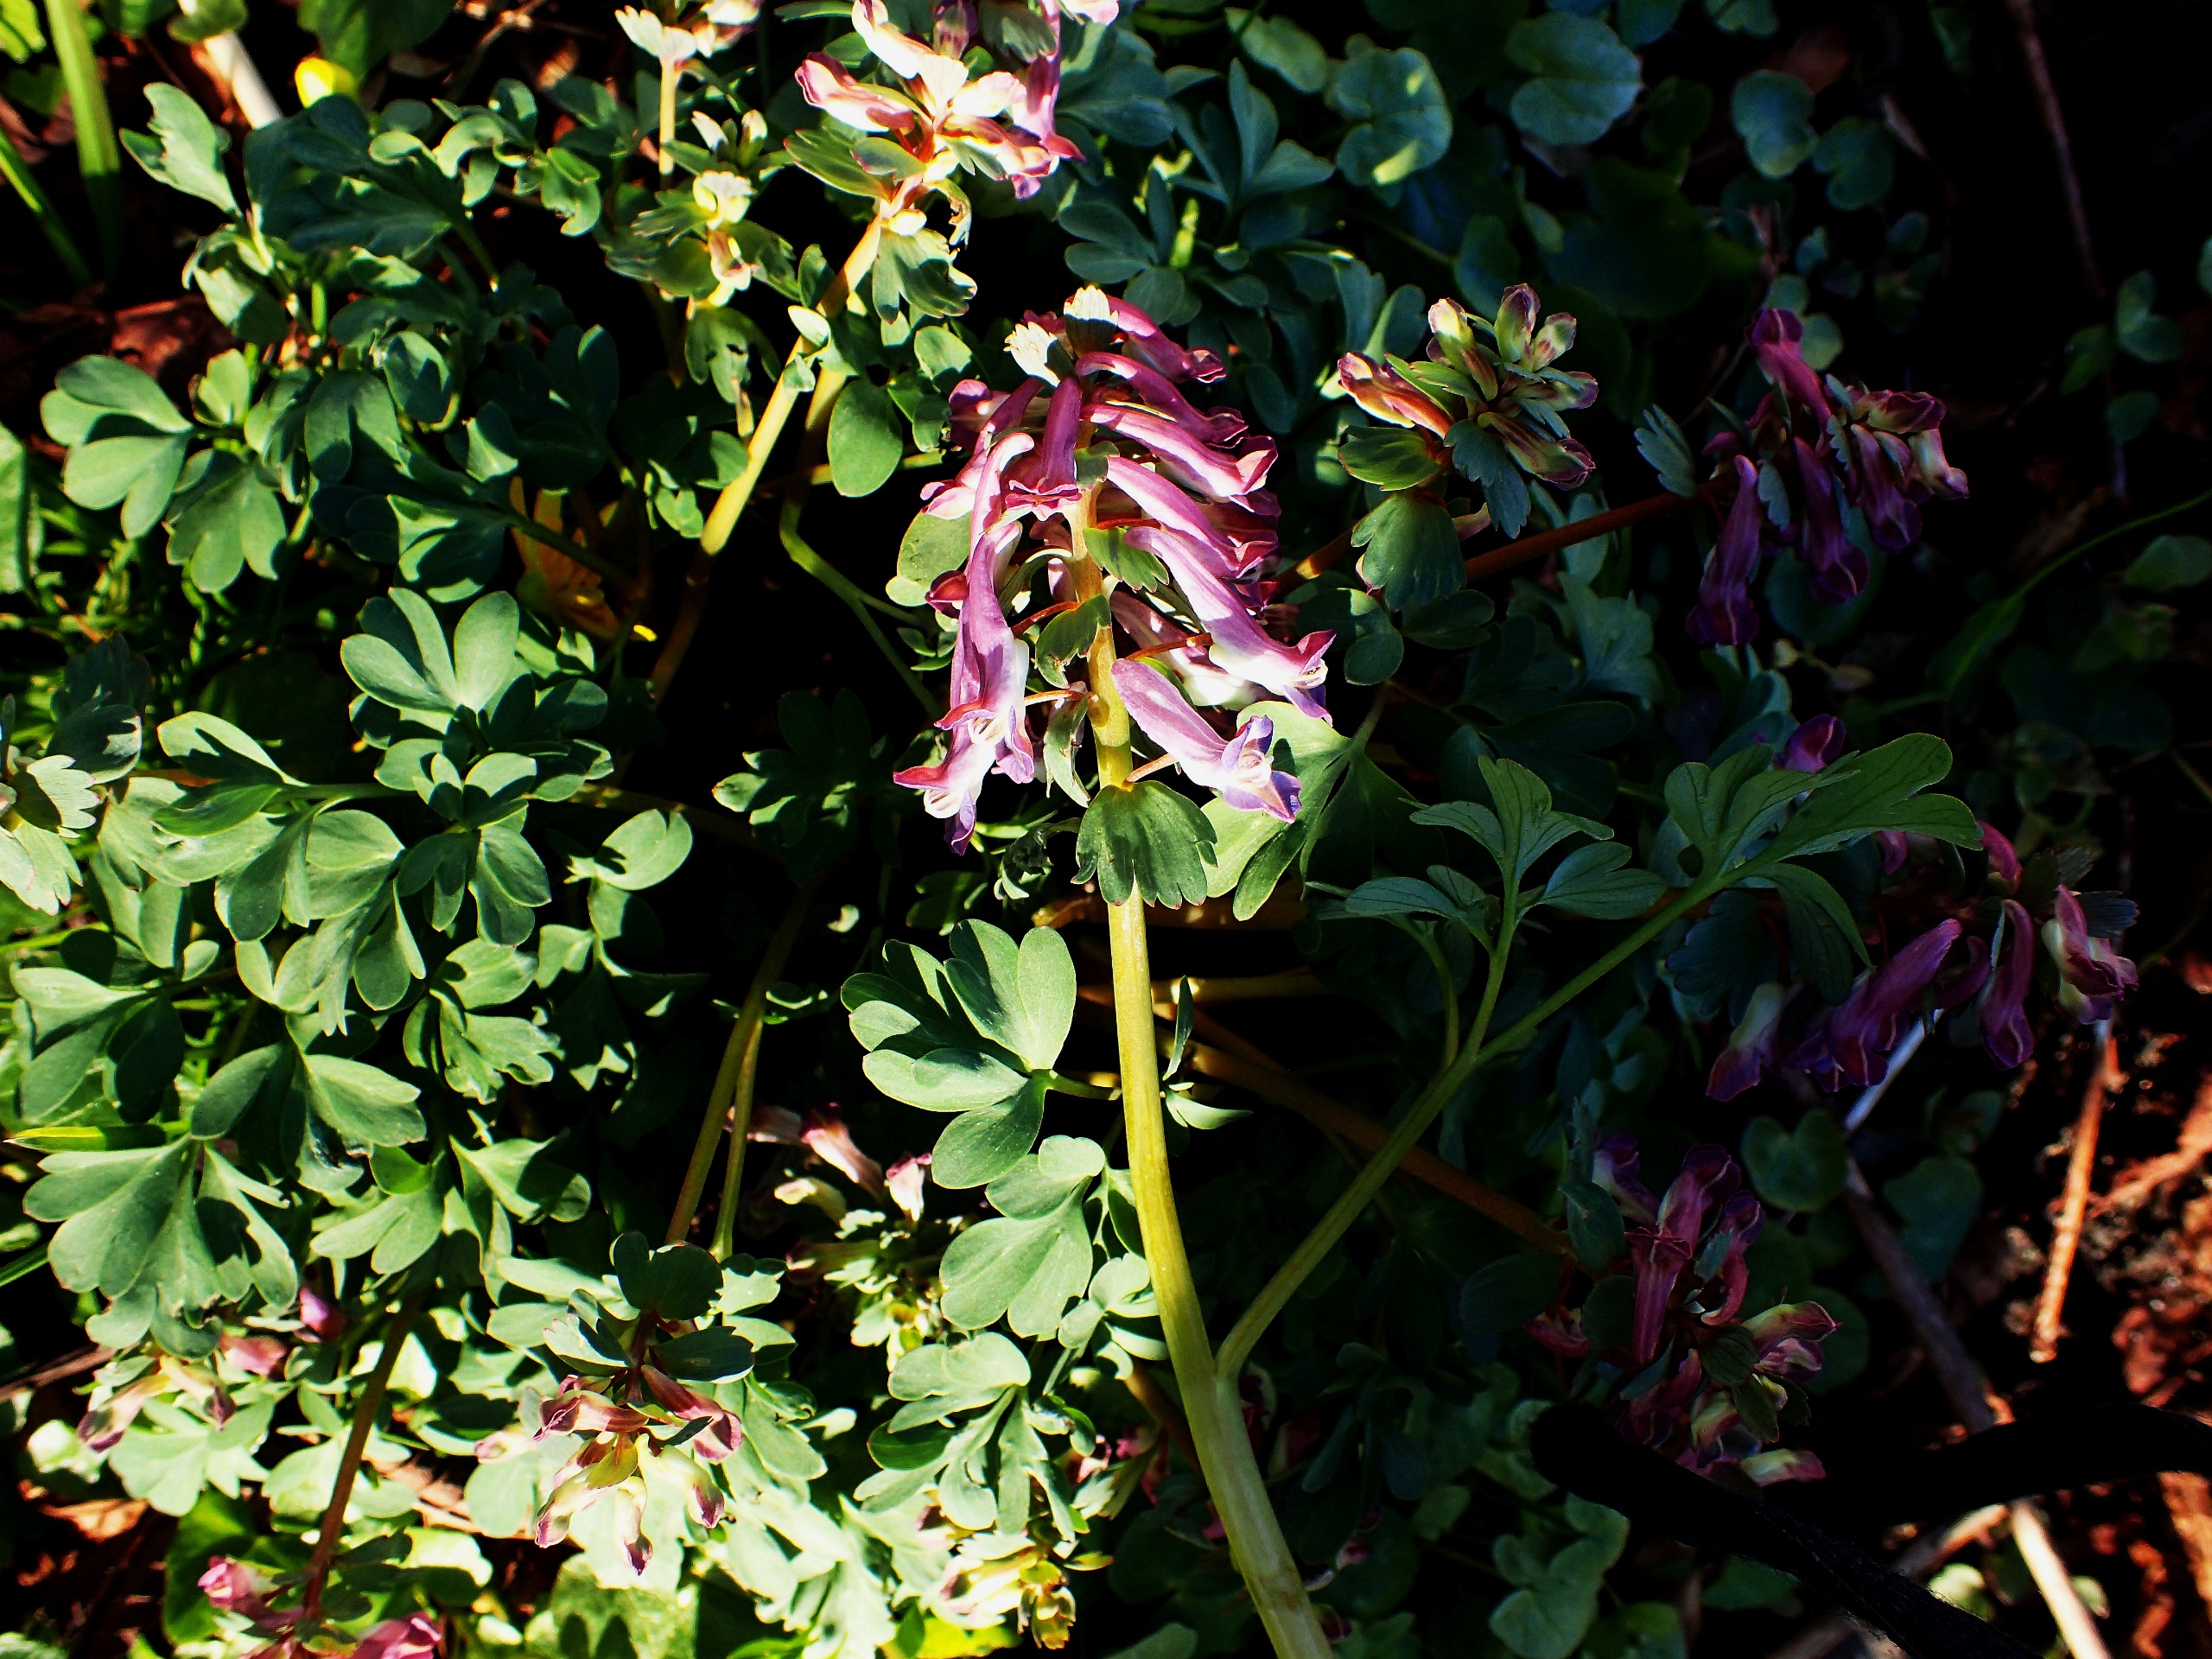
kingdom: Plantae
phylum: Tracheophyta
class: Magnoliopsida
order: Ranunculales
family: Papaveraceae
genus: Corydalis
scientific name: Corydalis solida
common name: Langstilket lærkespore
